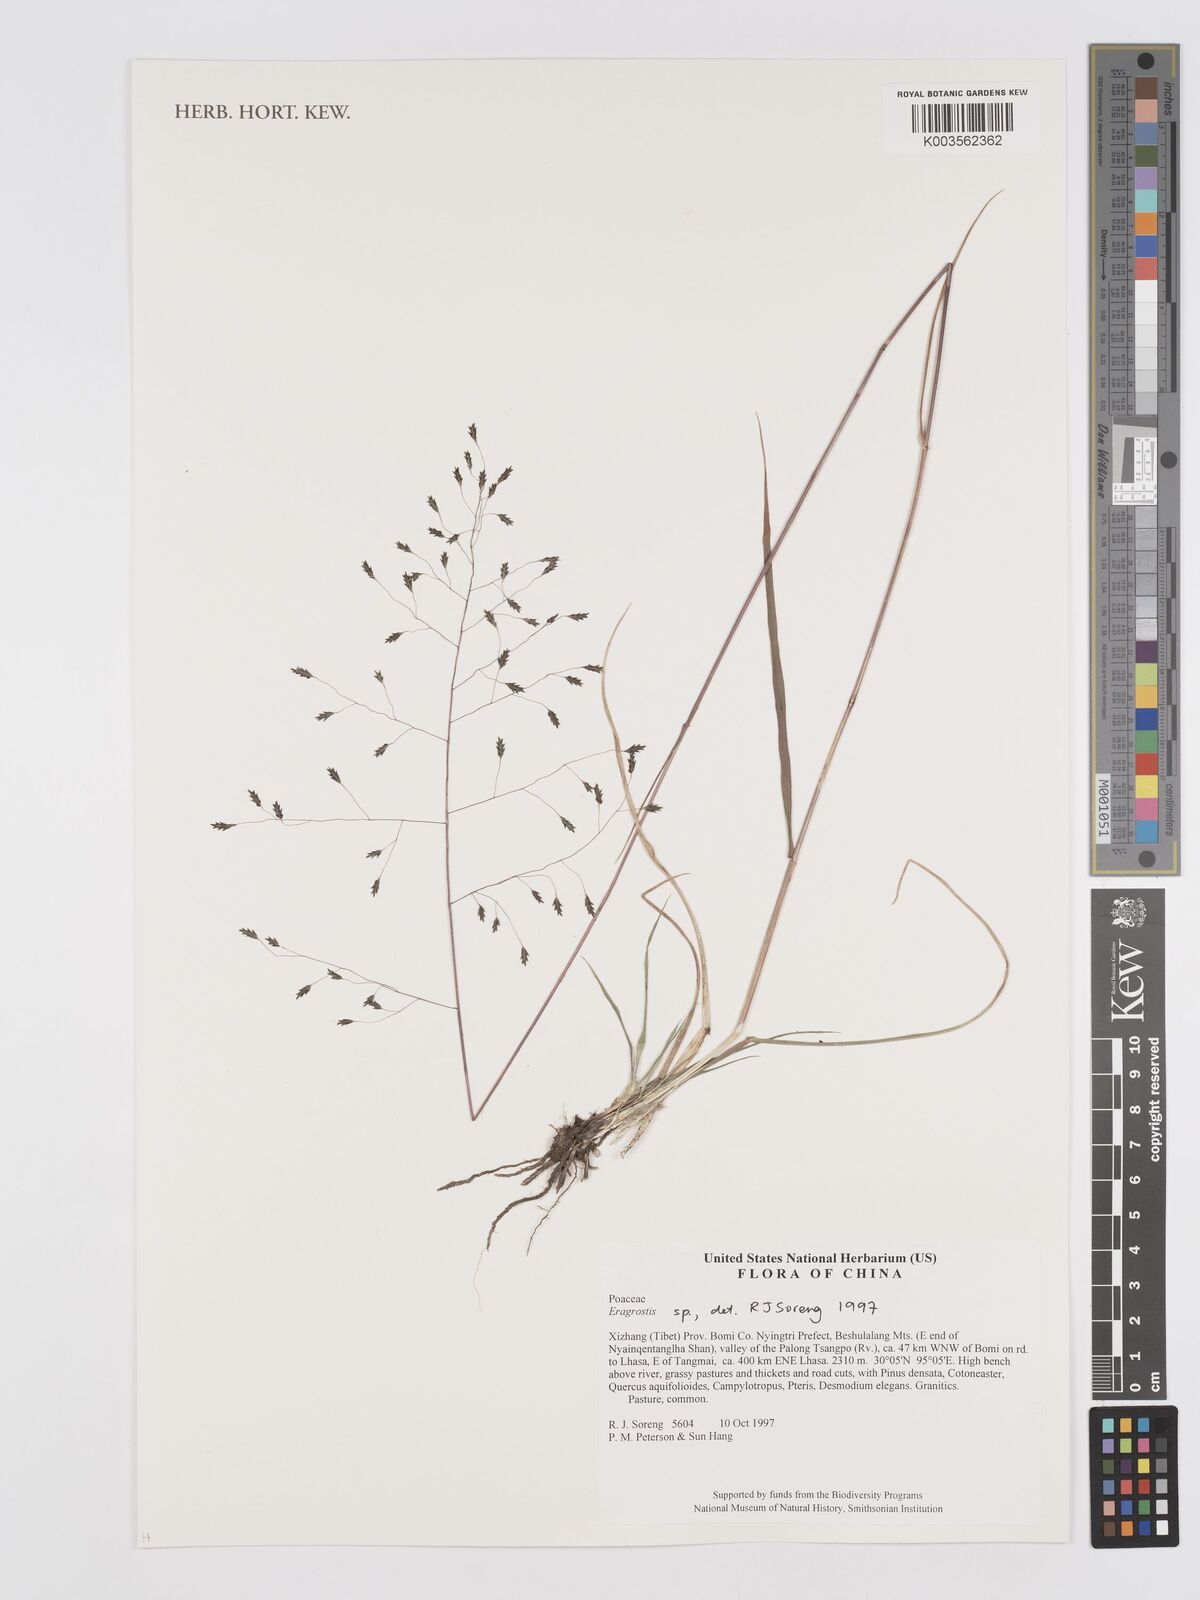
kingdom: Plantae
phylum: Tracheophyta
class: Liliopsida
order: Poales
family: Poaceae
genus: Eragrostis
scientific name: Eragrostis
